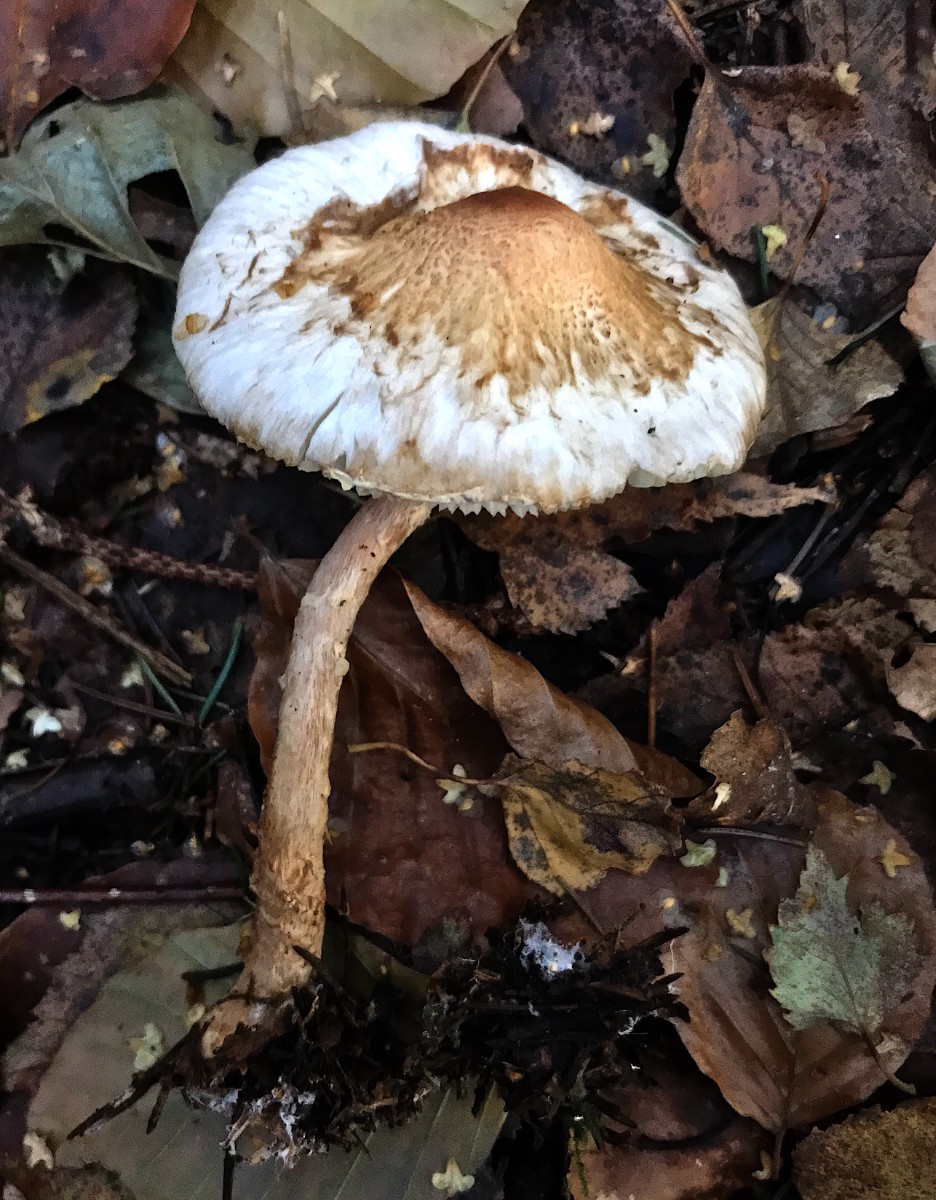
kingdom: Fungi
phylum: Basidiomycota
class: Agaricomycetes
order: Agaricales
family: Agaricaceae
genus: Lepiota
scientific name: Lepiota magnispora
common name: gulfnugget parasolhat
